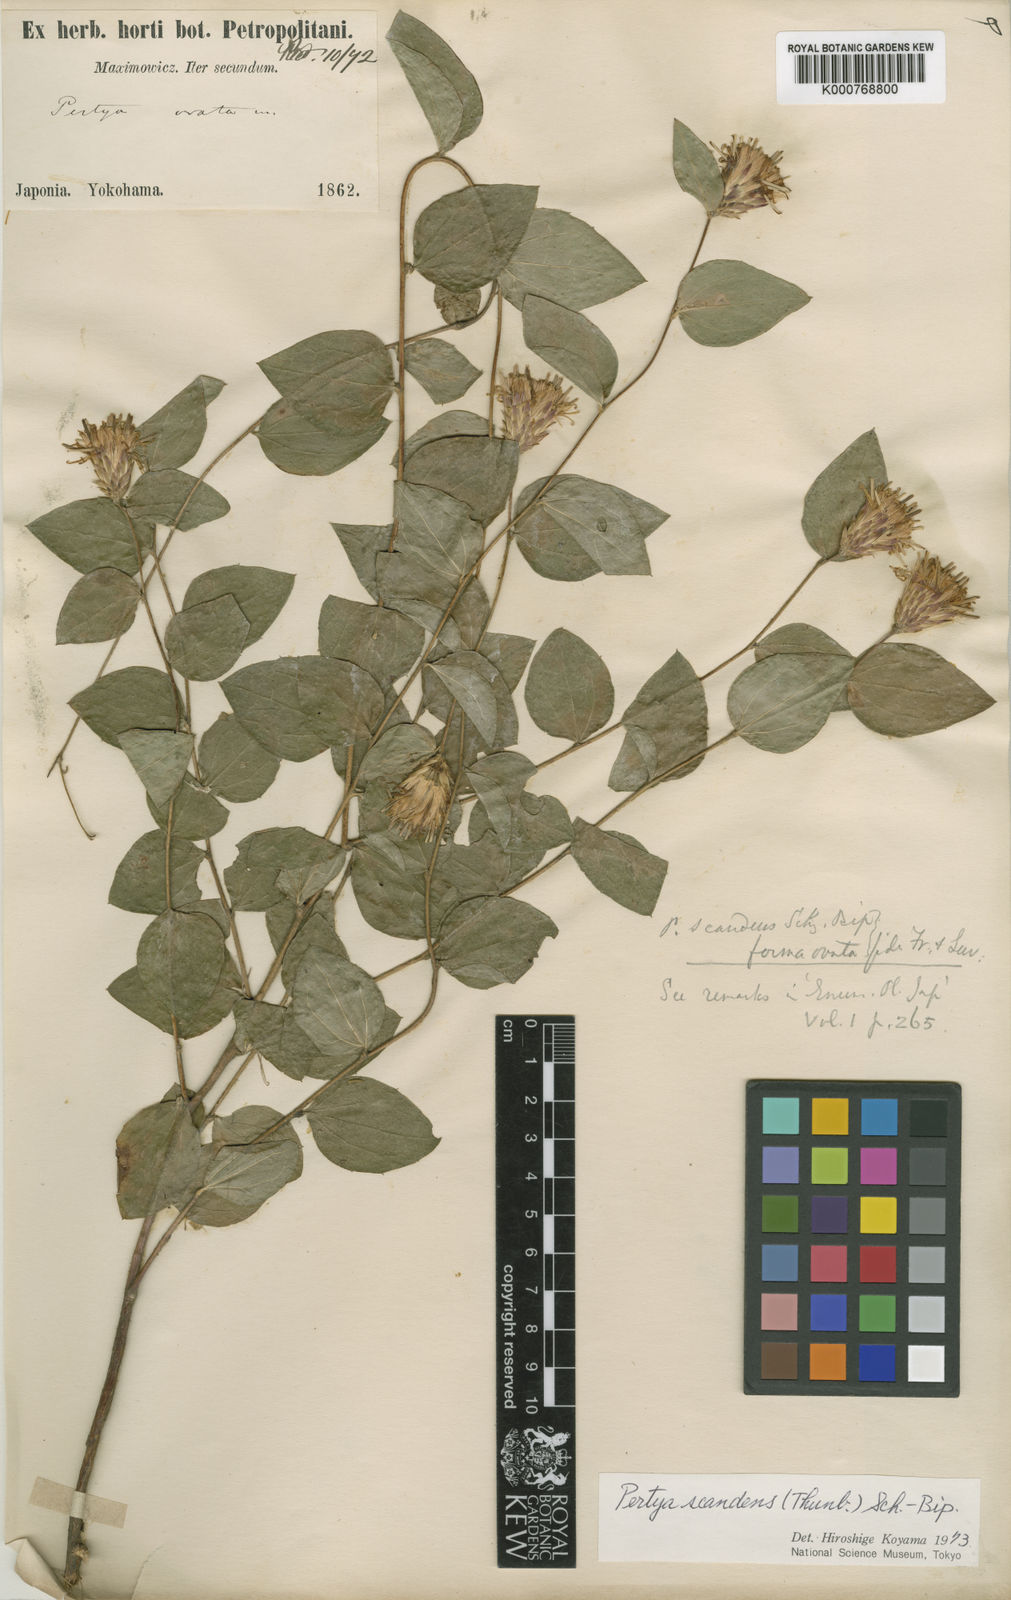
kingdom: Plantae
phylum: Tracheophyta
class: Magnoliopsida
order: Asterales
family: Asteraceae
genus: Pertya
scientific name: Pertya scandens
